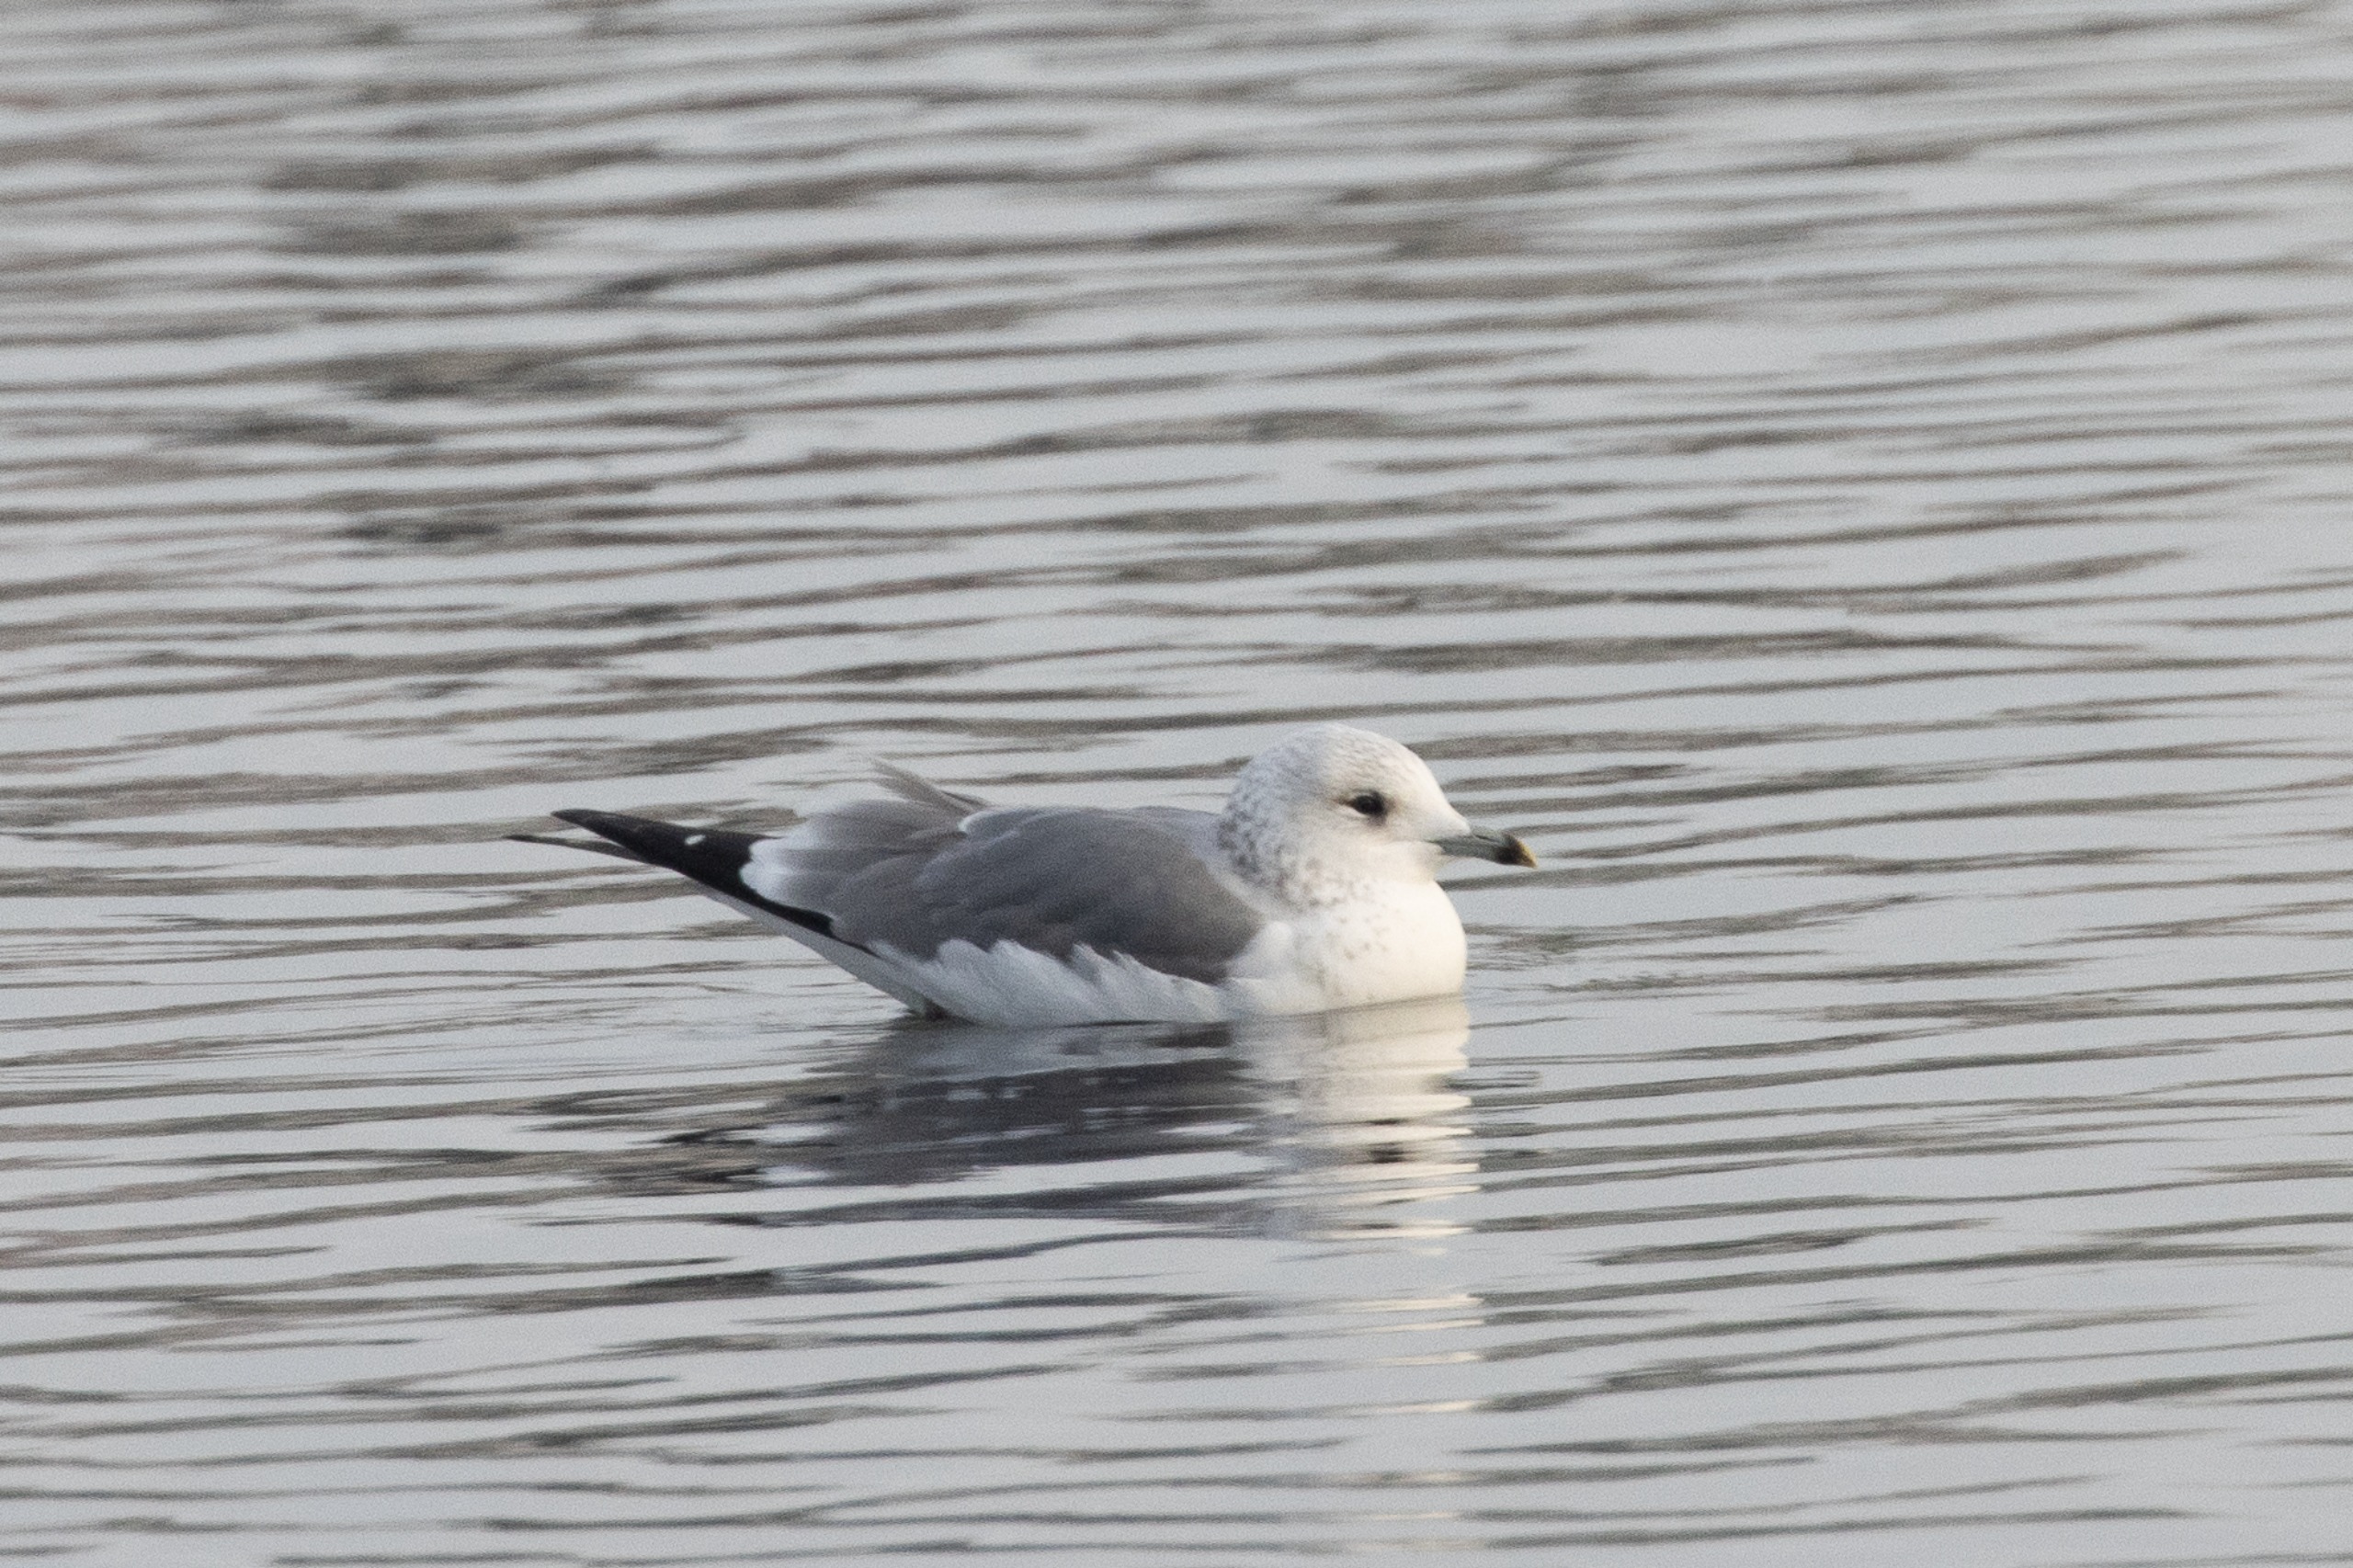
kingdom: Animalia
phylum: Chordata
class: Aves
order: Charadriiformes
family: Laridae
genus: Larus
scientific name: Larus canus
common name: Stormmåge
